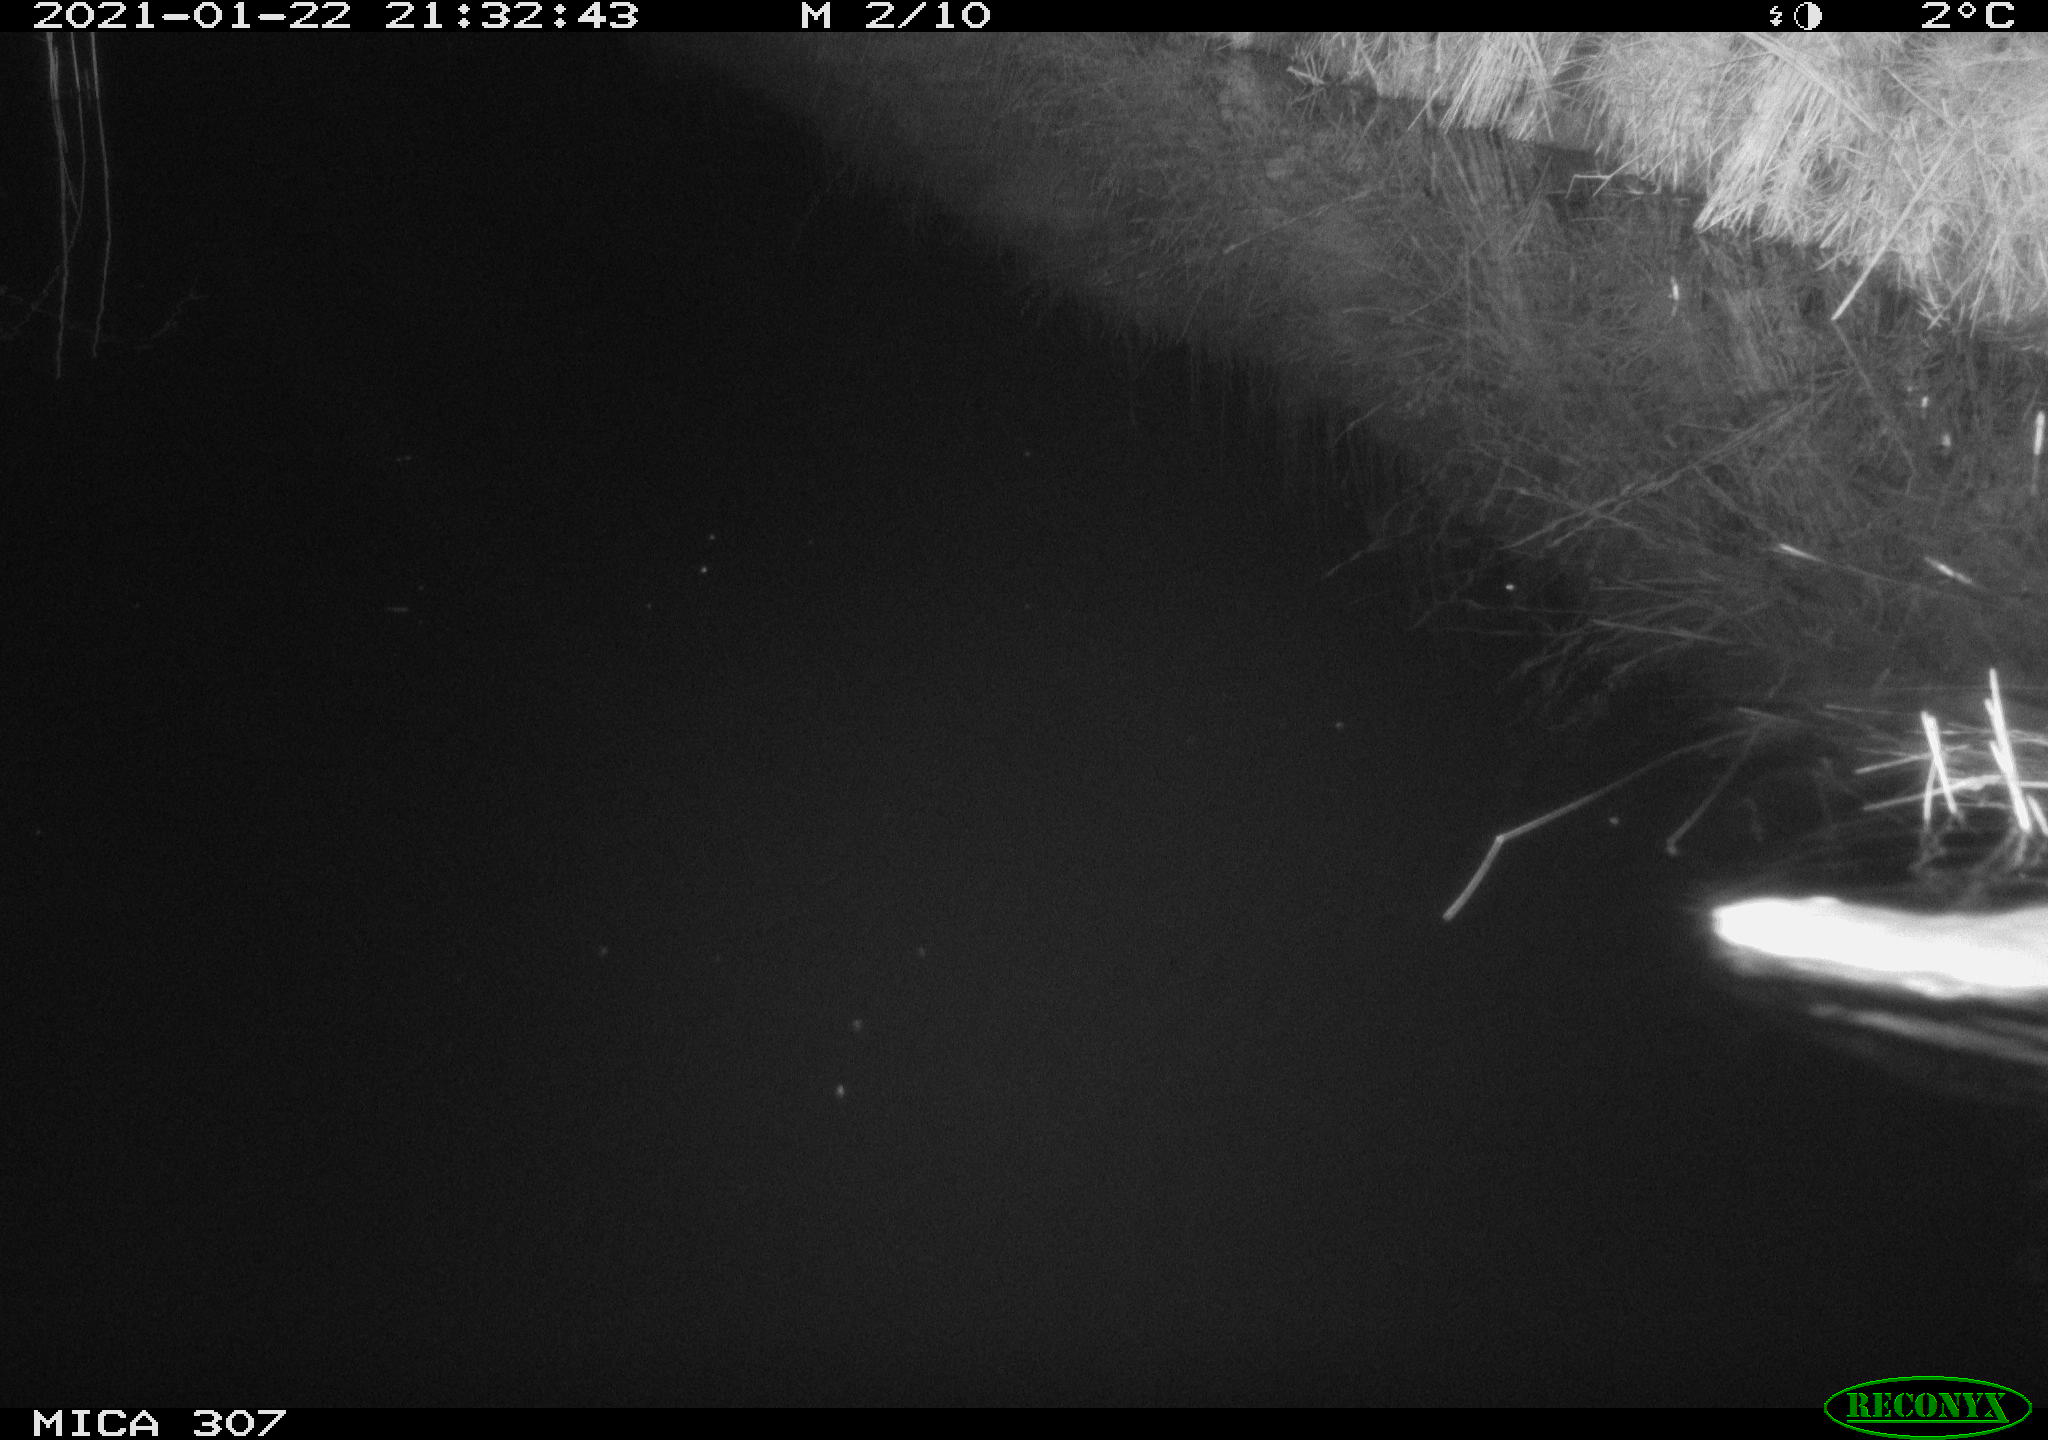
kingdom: Animalia
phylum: Chordata
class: Mammalia
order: Rodentia
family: Muridae
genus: Rattus
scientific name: Rattus norvegicus
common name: Brown rat
